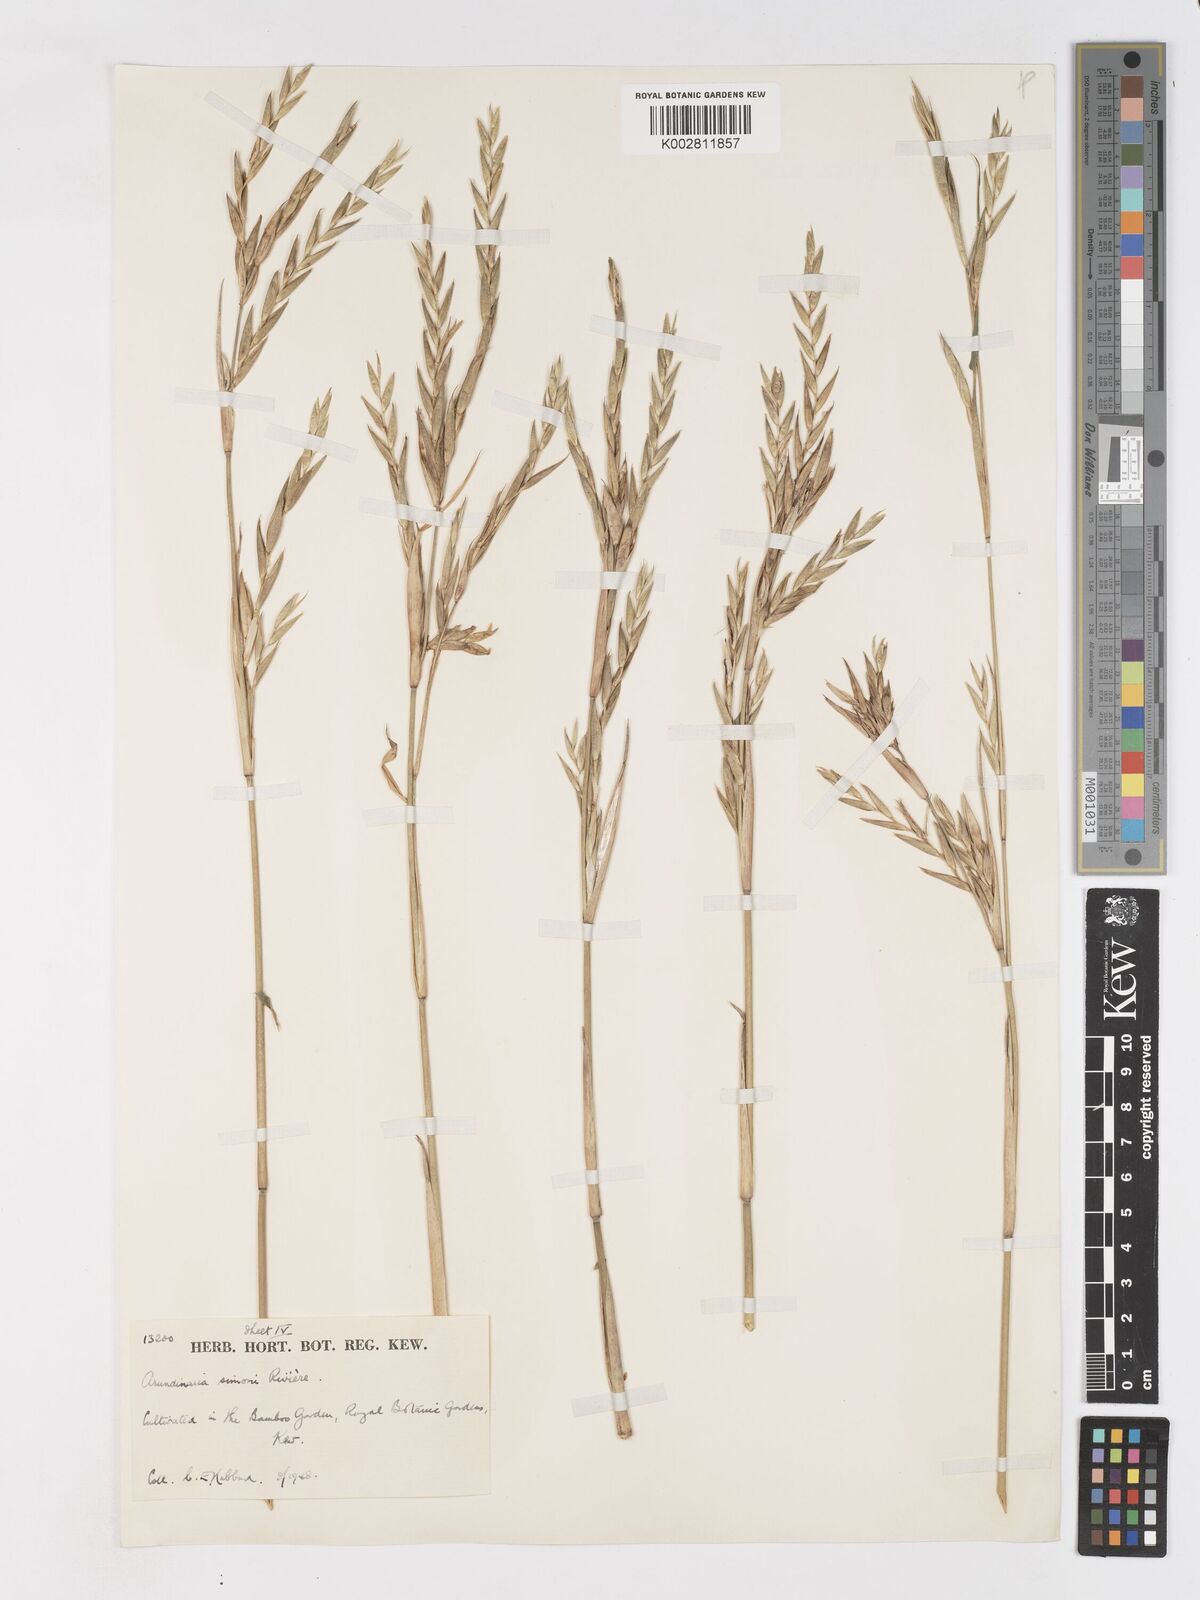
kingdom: Plantae
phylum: Tracheophyta
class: Liliopsida
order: Poales
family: Poaceae
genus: Pleioblastus
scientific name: Pleioblastus simonii
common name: Simon bamboo
